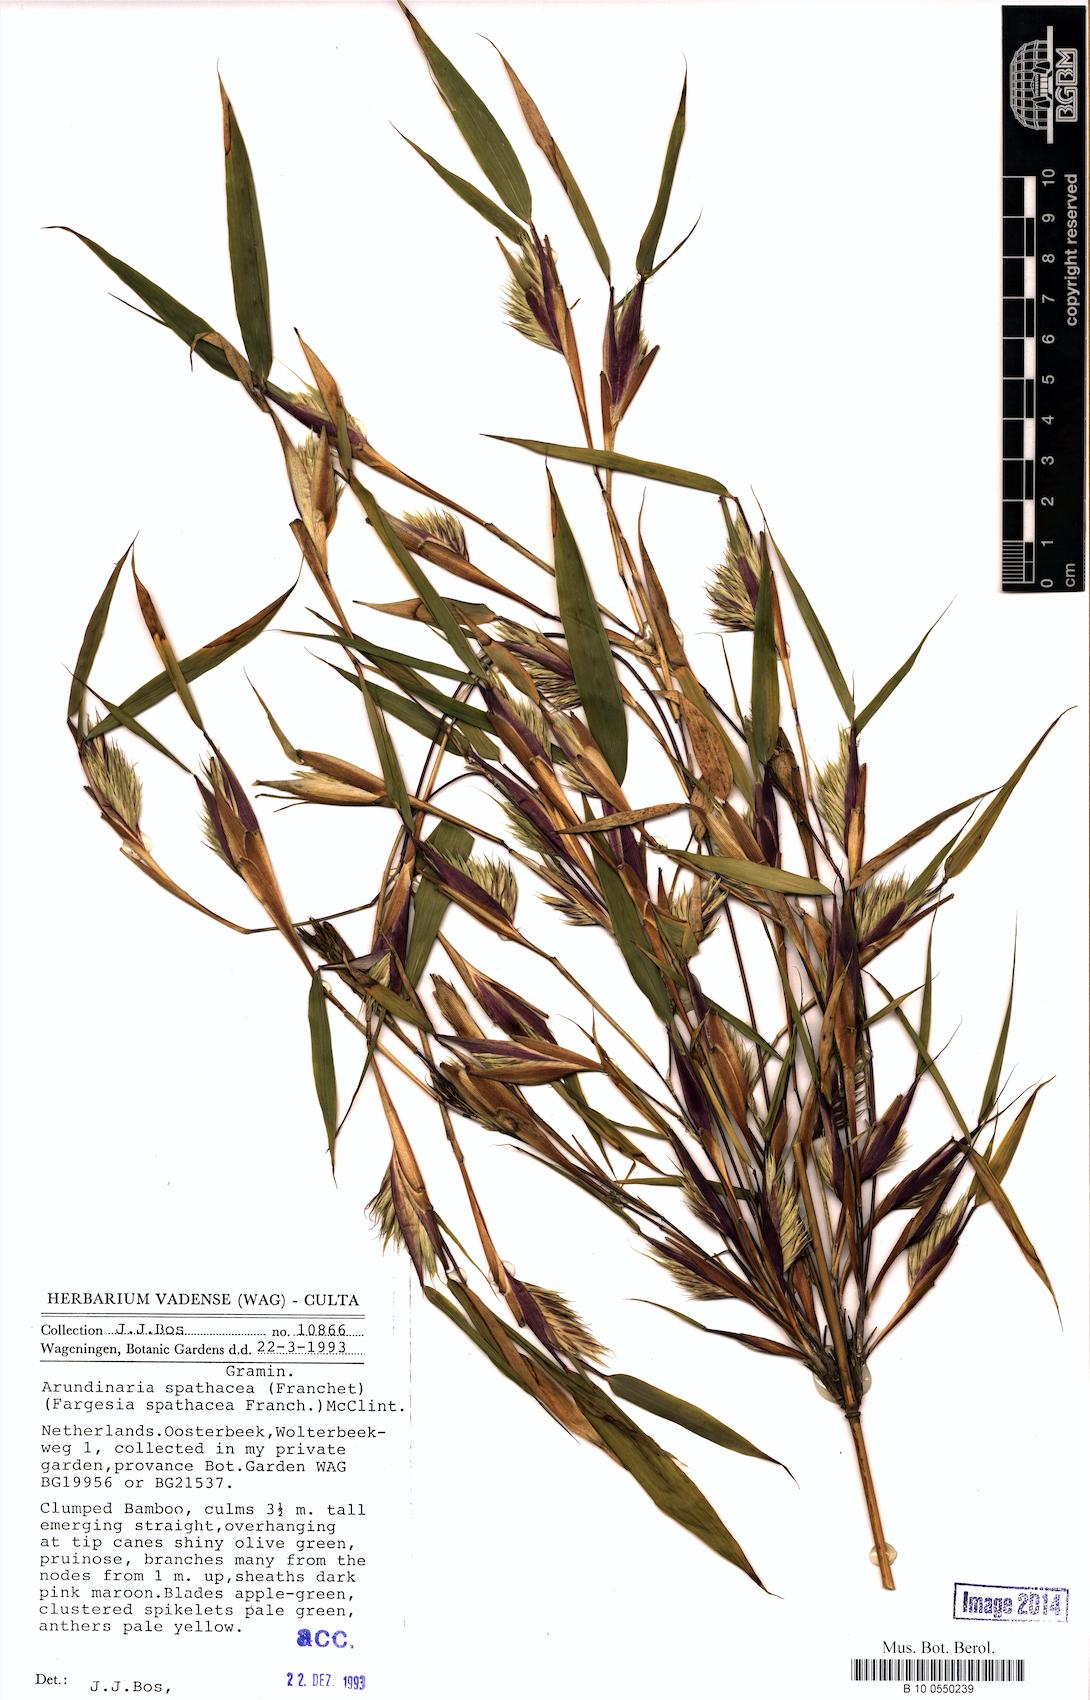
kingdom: Plantae
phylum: Tracheophyta
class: Liliopsida
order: Poales
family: Poaceae
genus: Fargesia
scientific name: Fargesia spathacea
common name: Chinese fountain-bamboo
